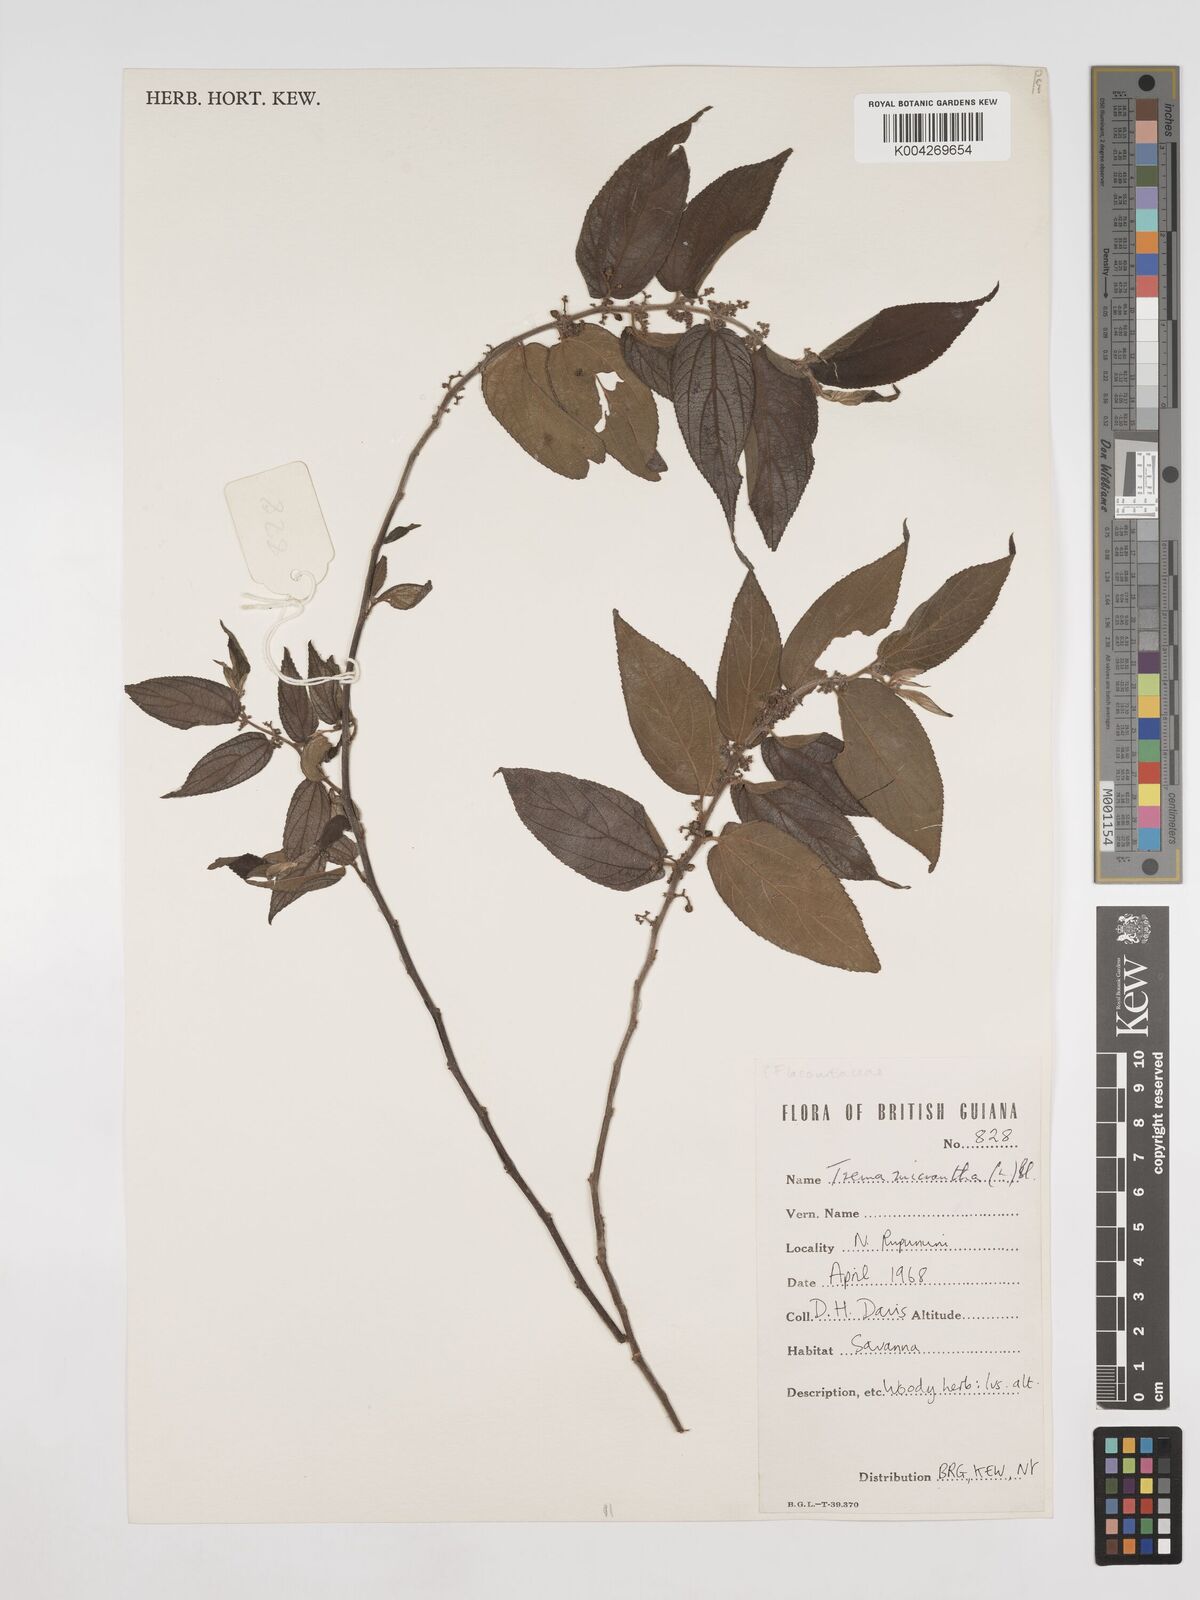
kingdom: Plantae
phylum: Tracheophyta
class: Magnoliopsida
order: Rosales
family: Cannabaceae
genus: Trema
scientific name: Trema micranthum
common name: Jamaican nettletree
